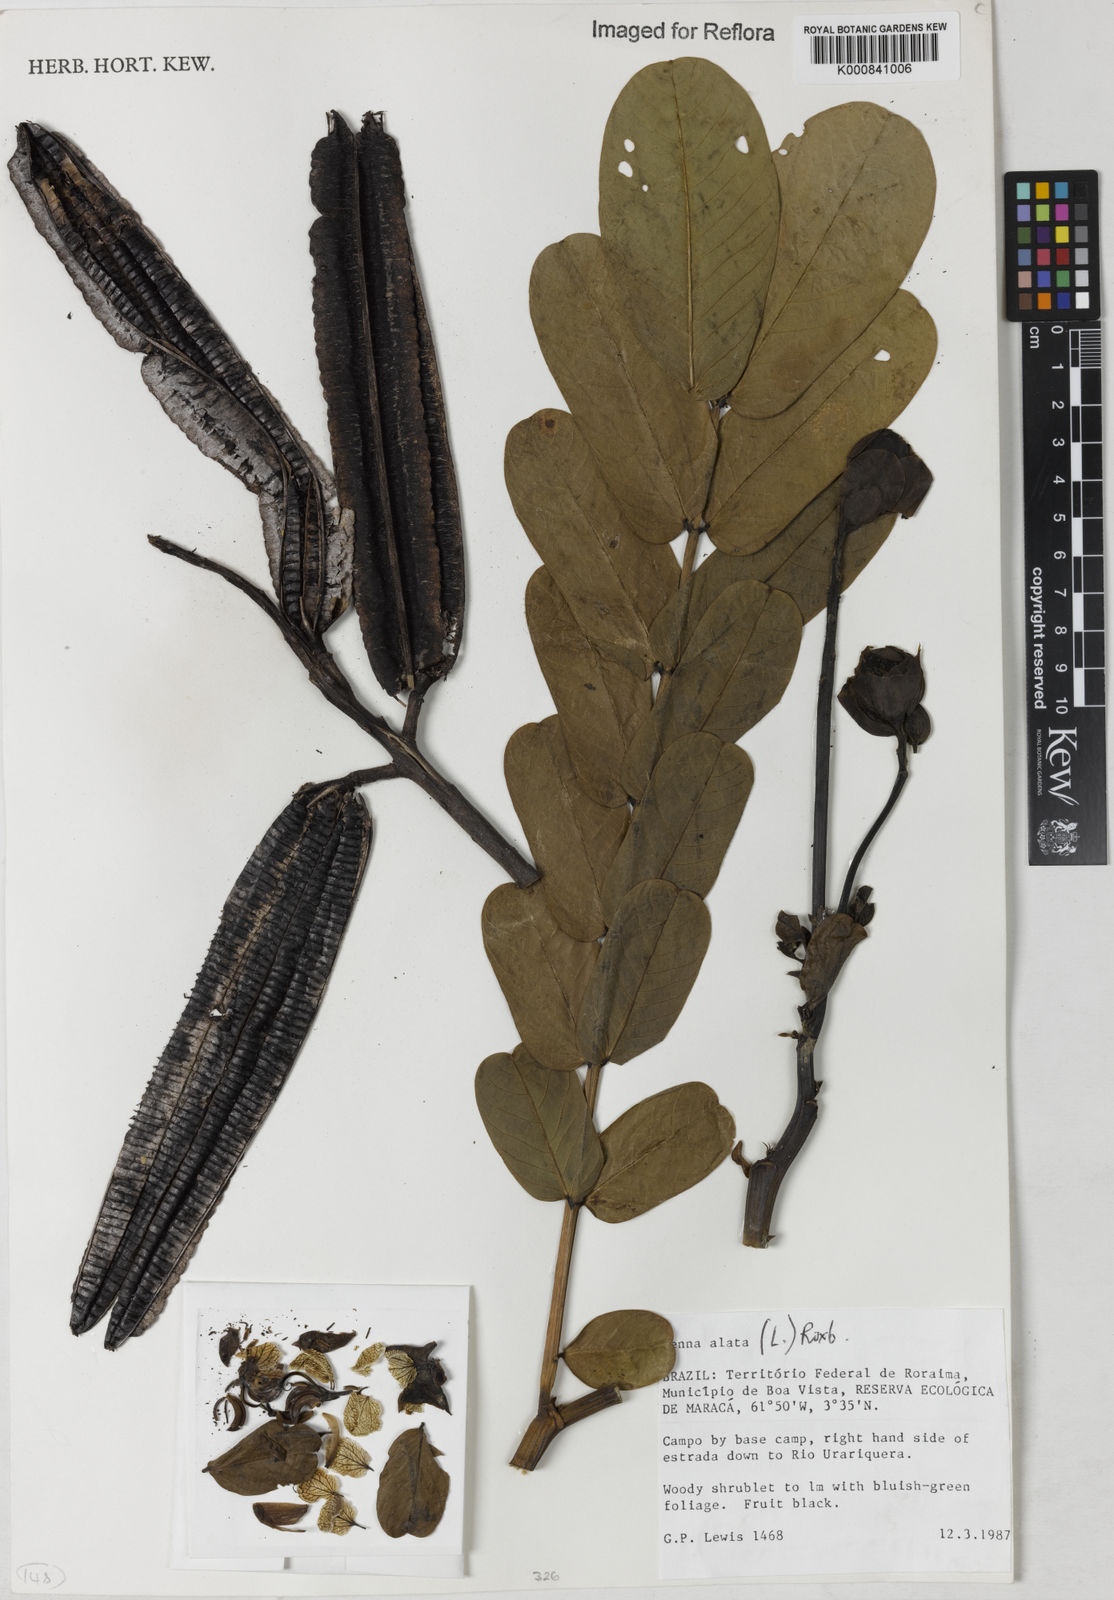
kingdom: Plantae
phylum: Tracheophyta
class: Magnoliopsida
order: Fabales
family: Fabaceae
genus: Senna
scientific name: Senna alata
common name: Emperor's candlesticks
